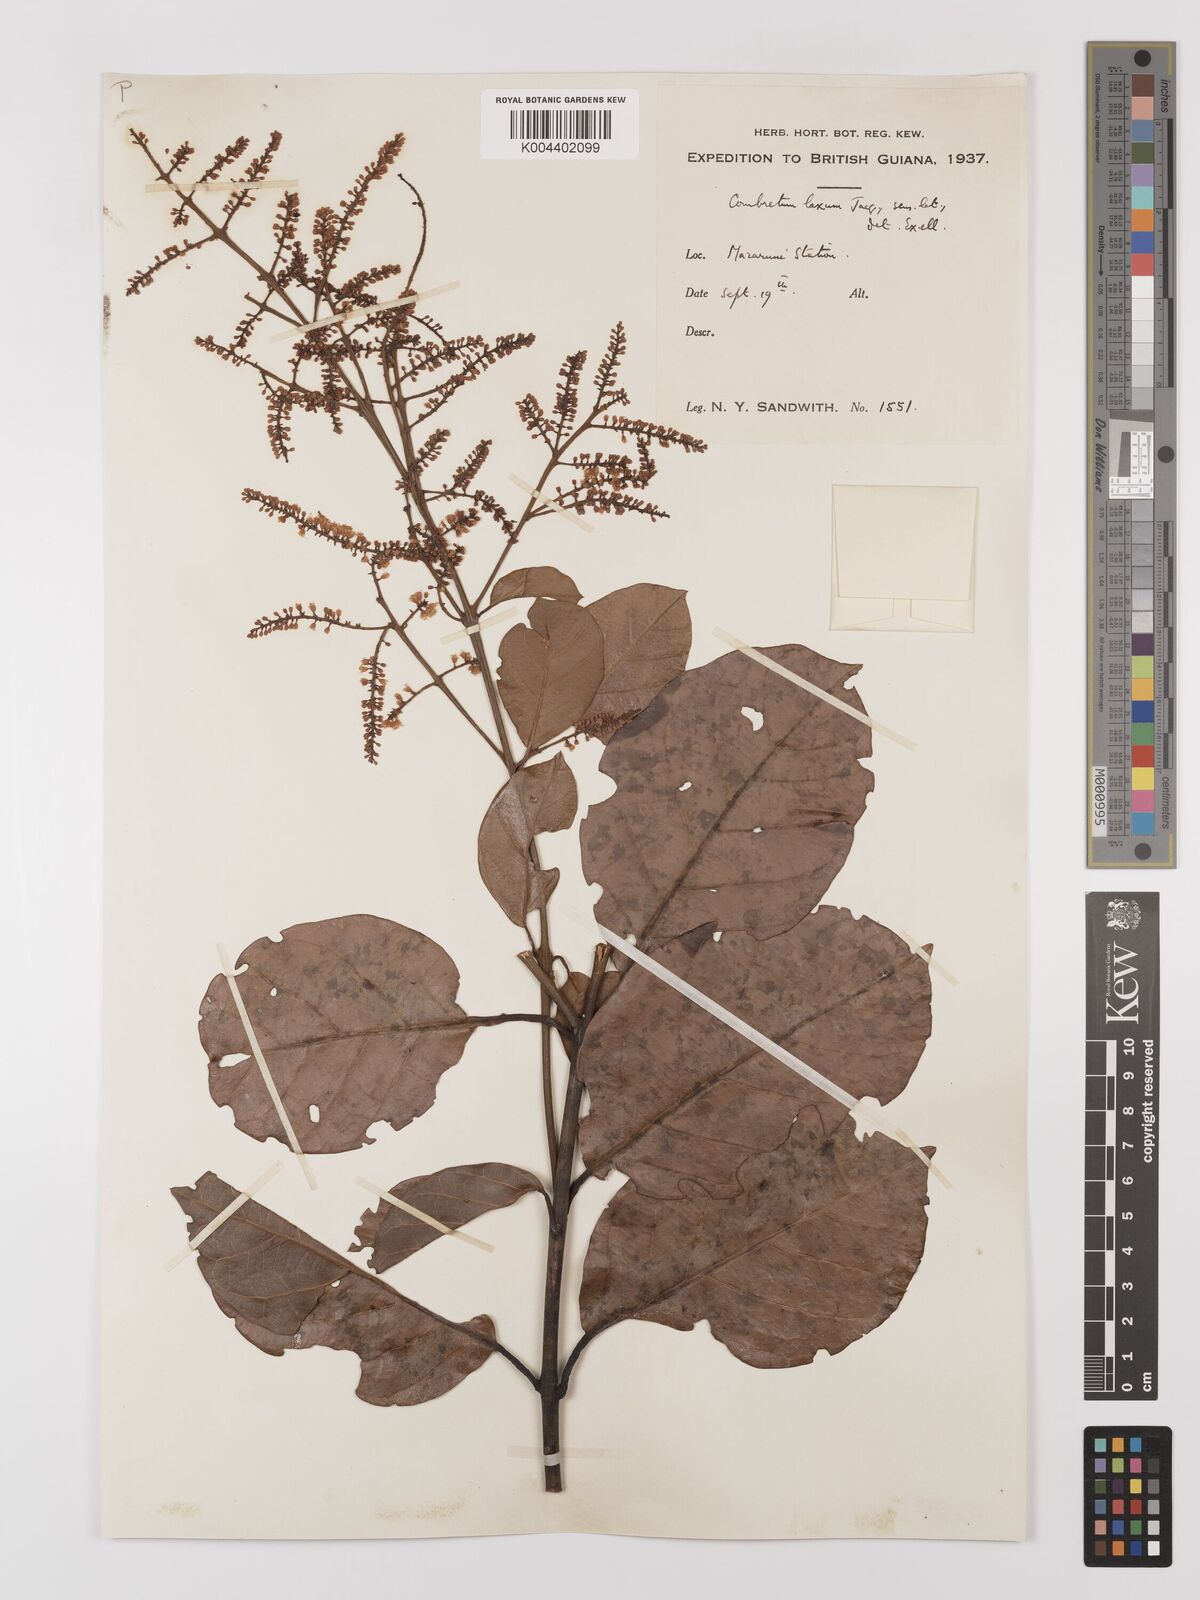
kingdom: Plantae
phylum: Tracheophyta
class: Magnoliopsida
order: Myrtales
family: Combretaceae
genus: Combretum
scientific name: Combretum
